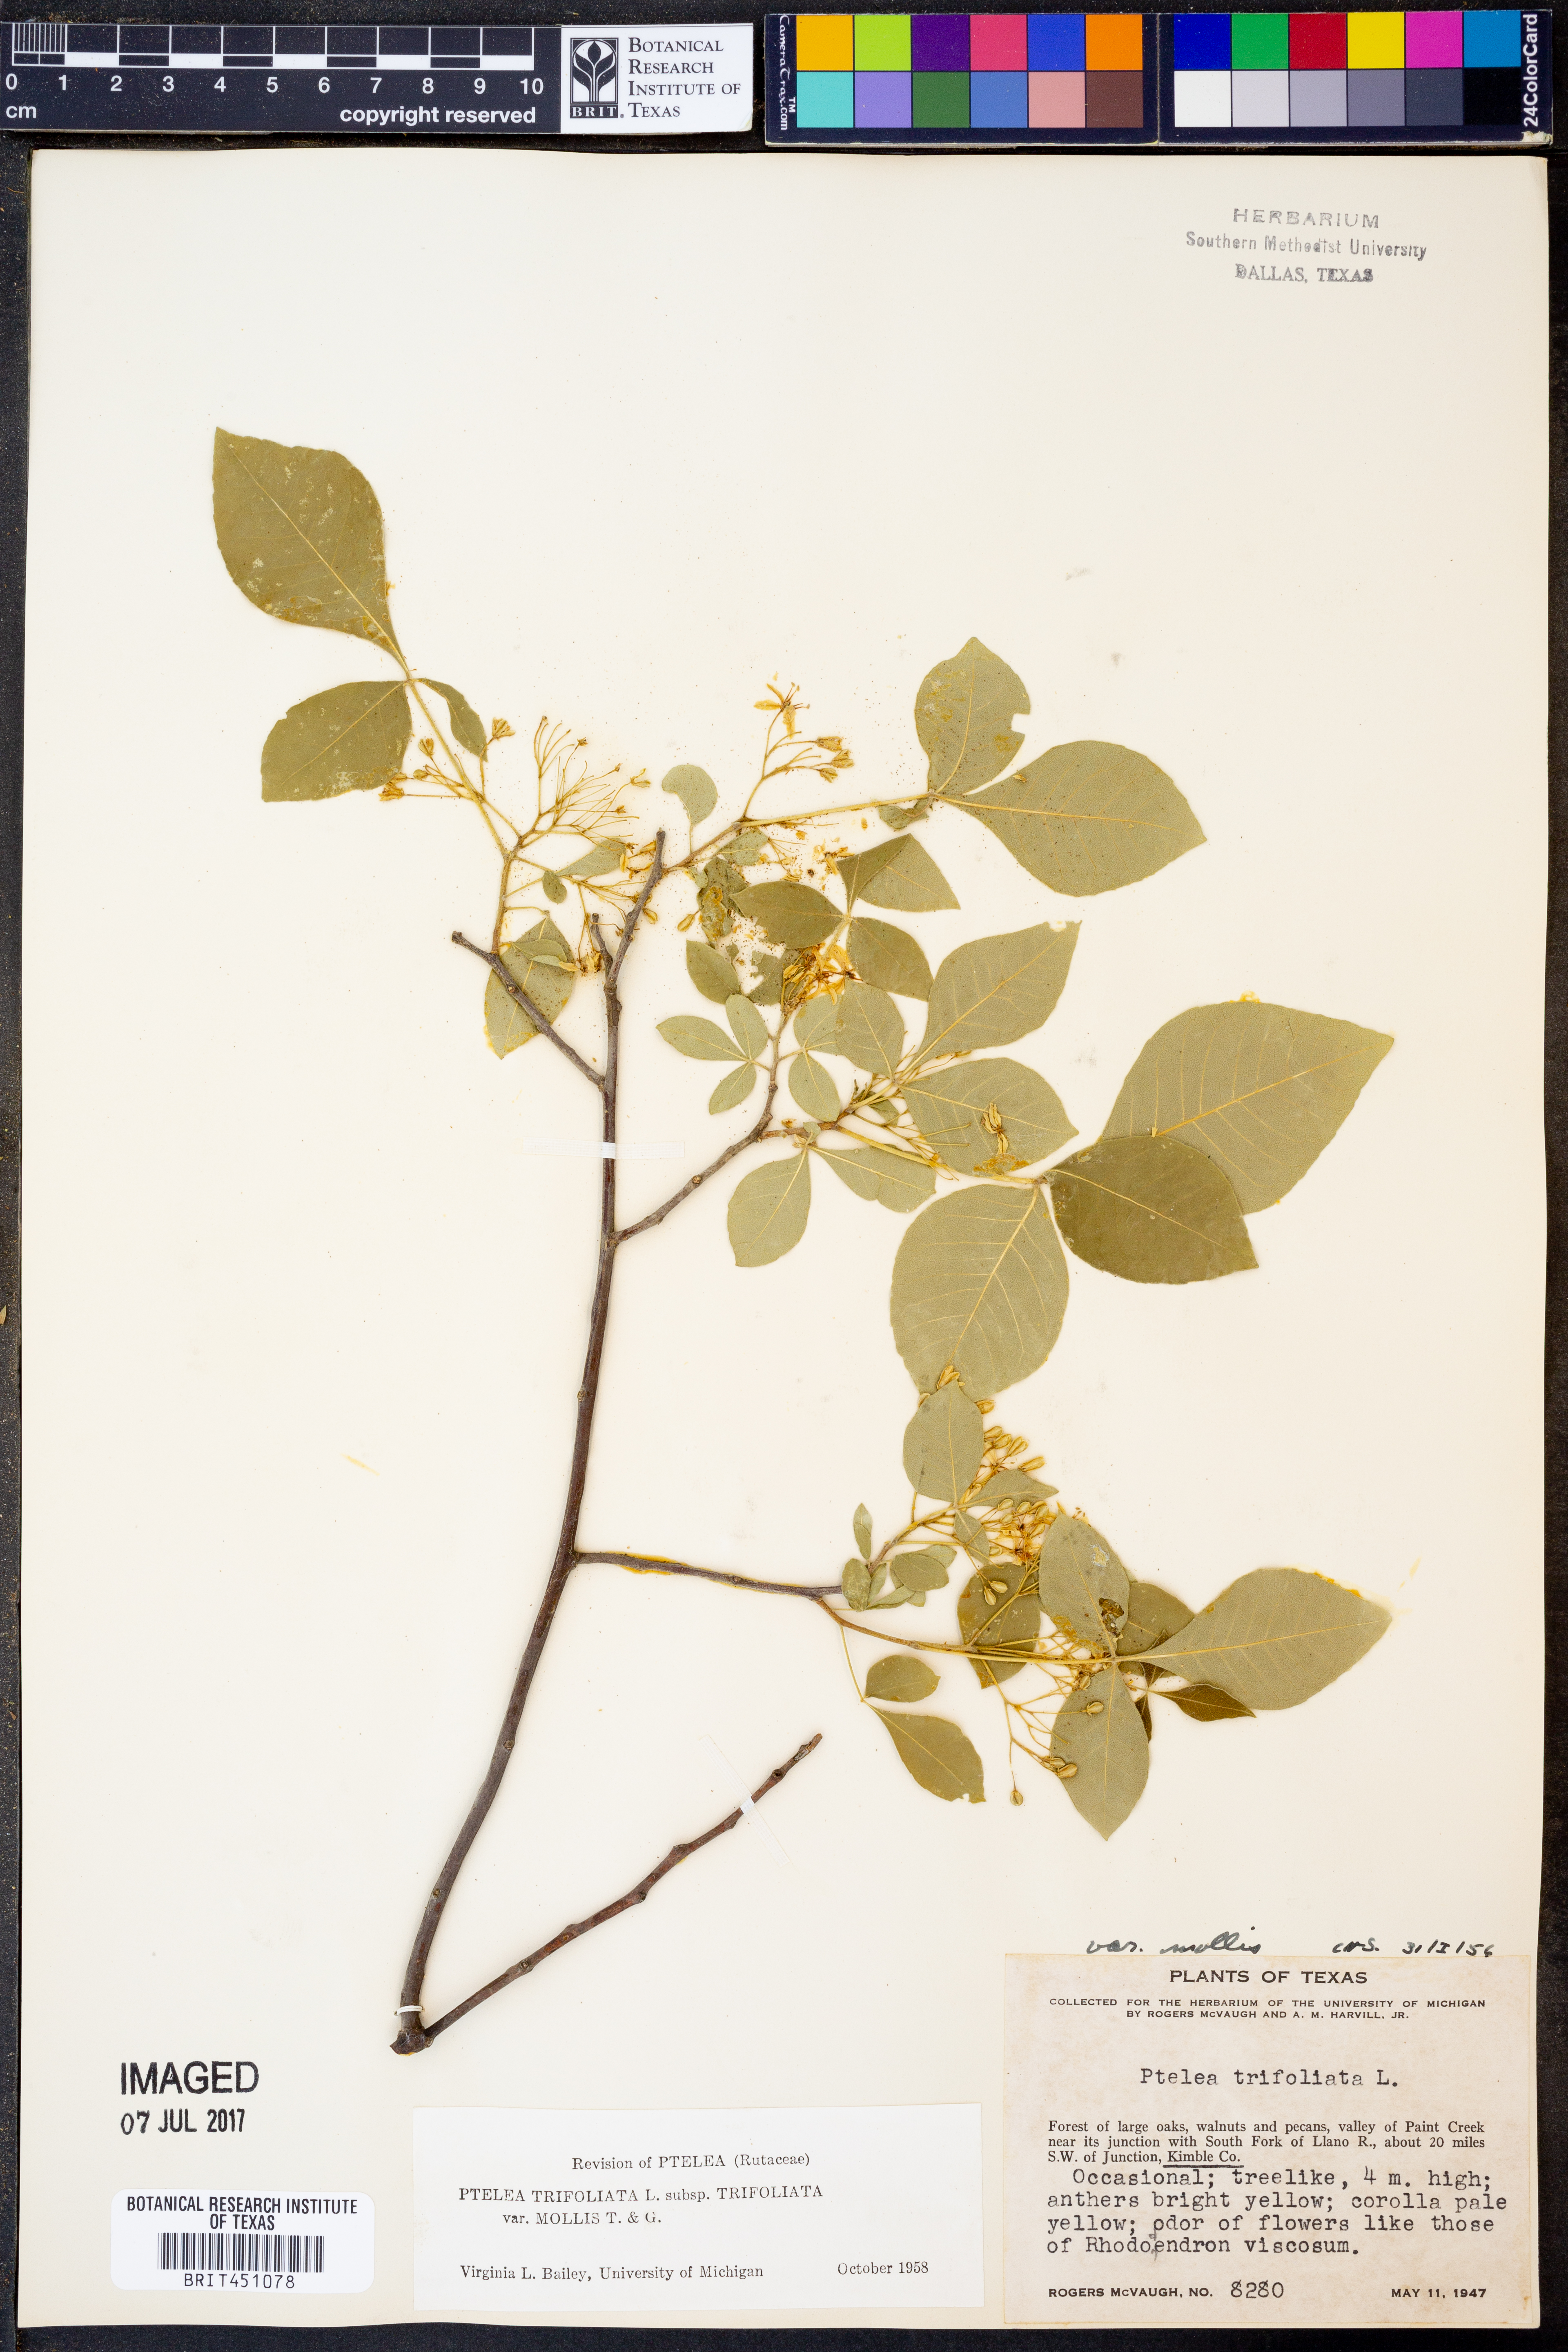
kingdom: Plantae
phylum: Tracheophyta
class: Magnoliopsida
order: Sapindales
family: Rutaceae
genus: Ptelea
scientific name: Ptelea trifoliata
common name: Common hop-tree
